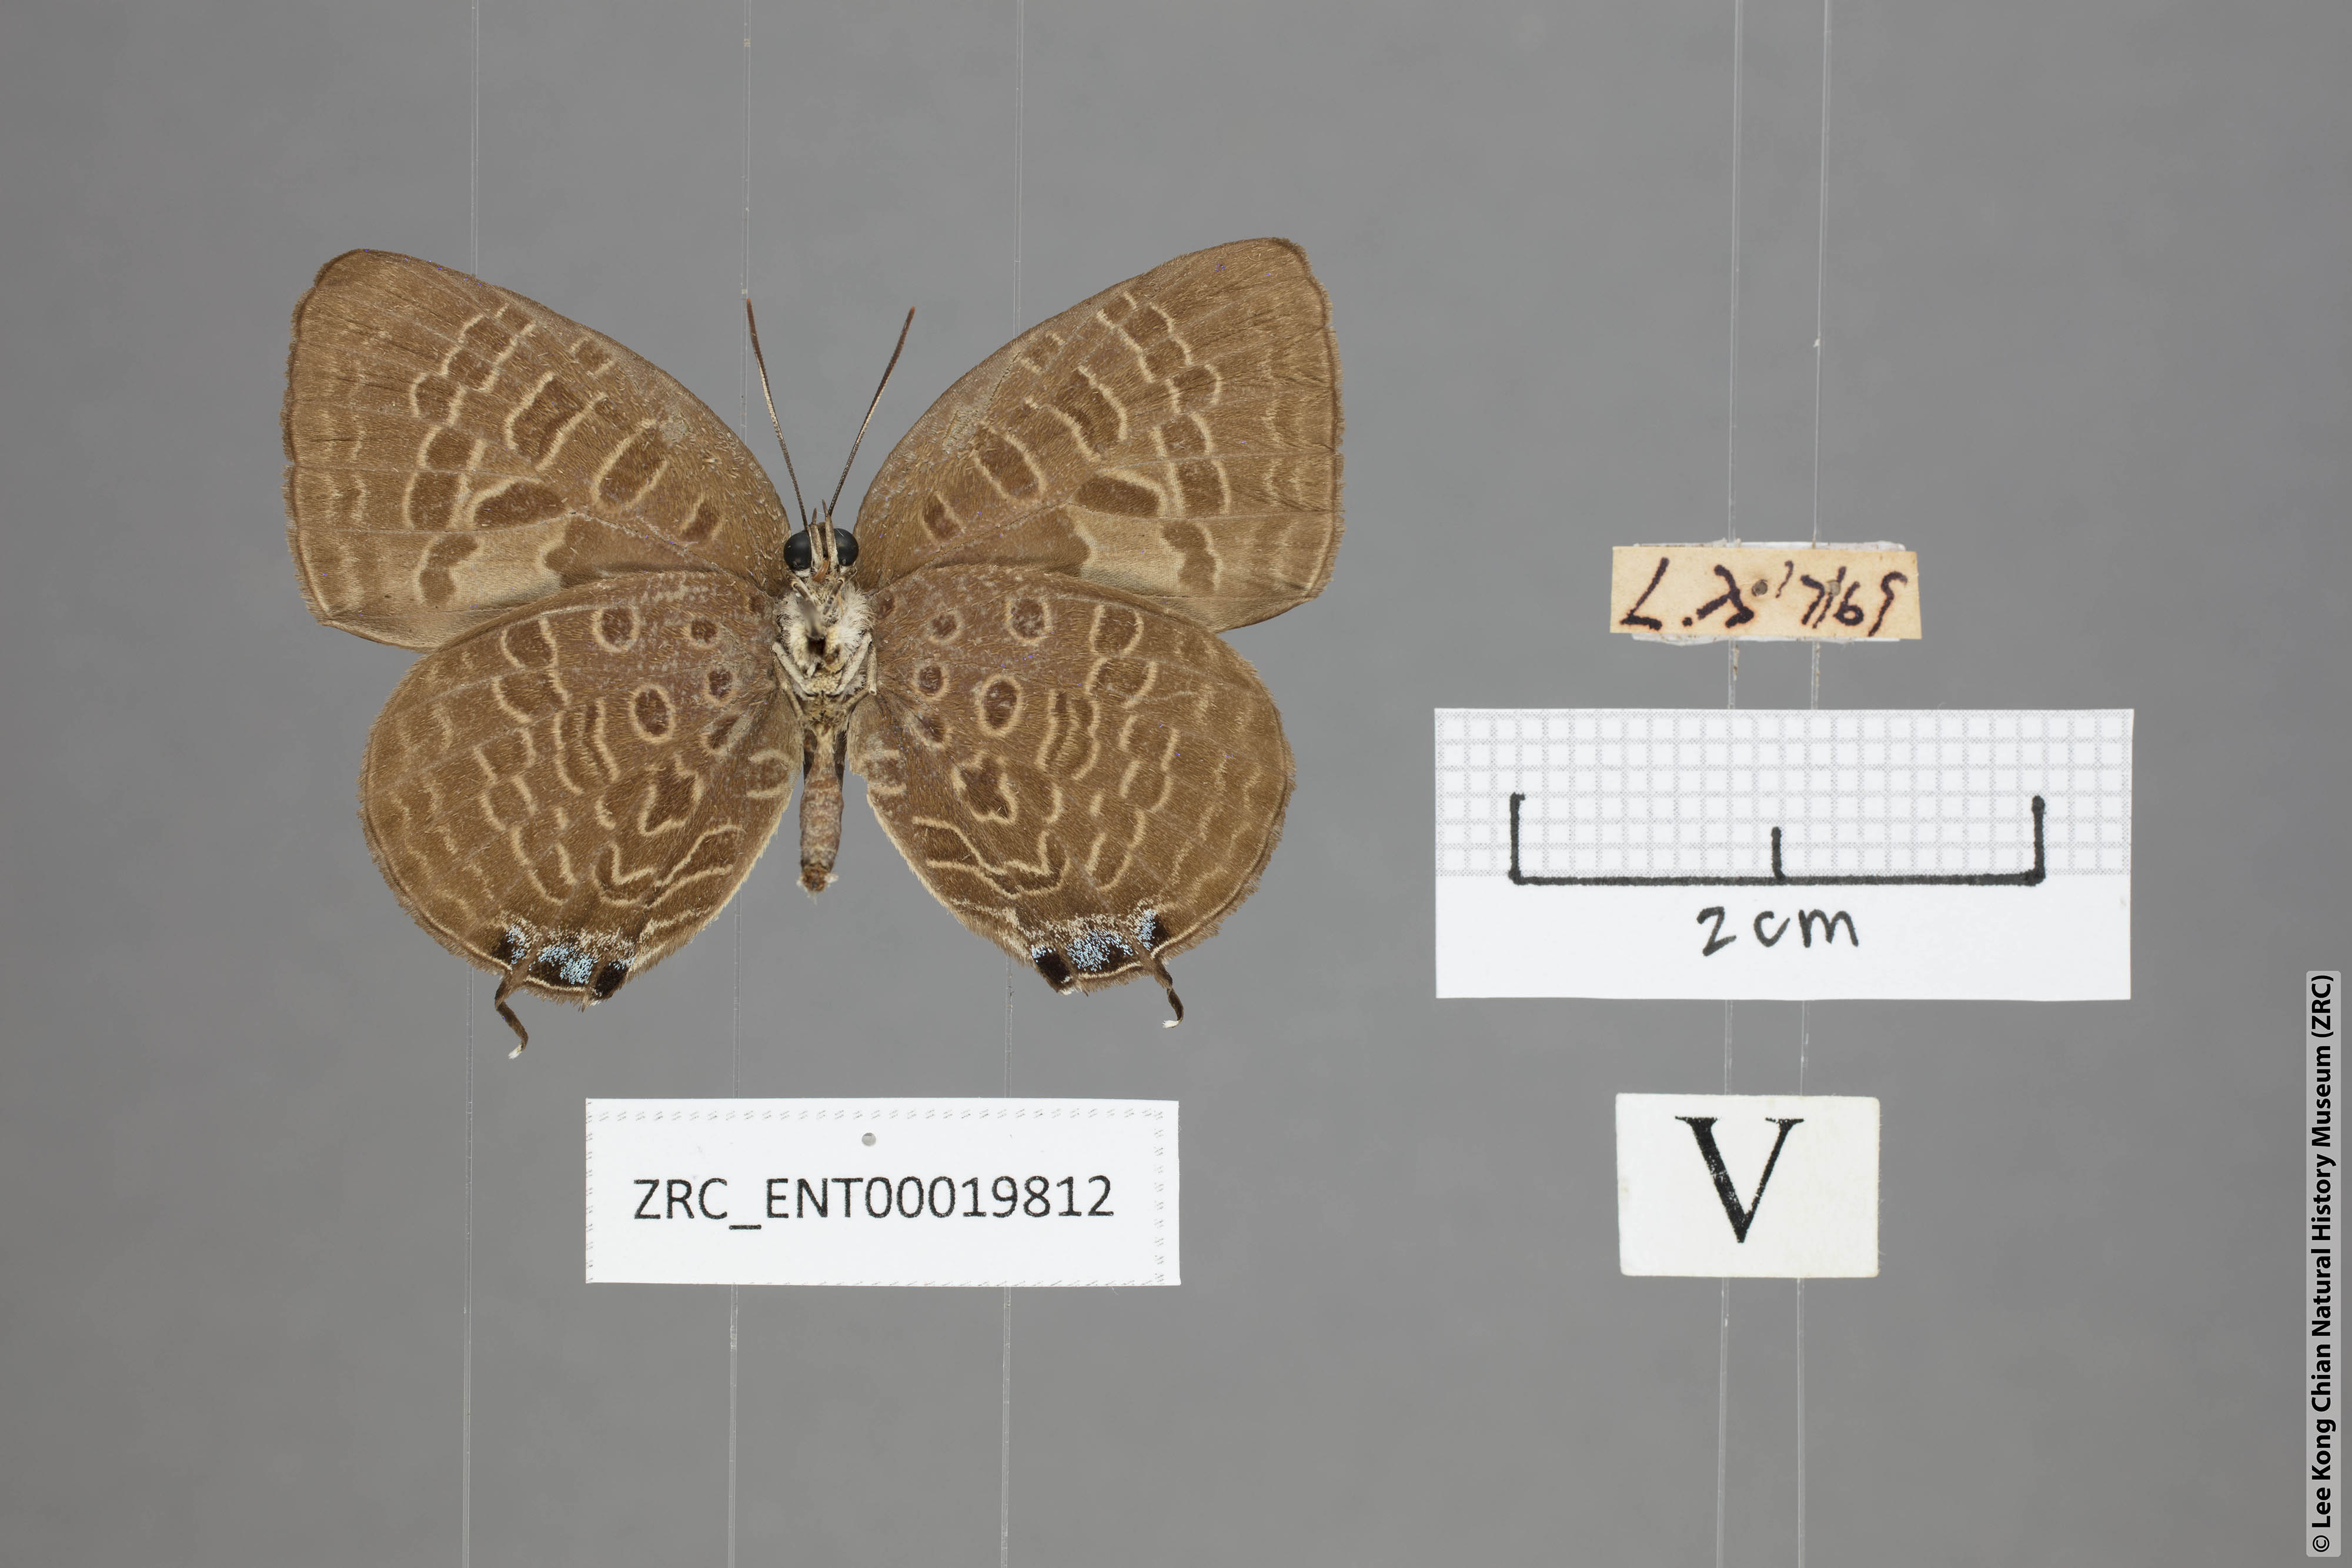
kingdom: Animalia
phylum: Arthropoda
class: Insecta
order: Lepidoptera
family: Lycaenidae
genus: Arhopala
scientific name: Arhopala pseudomuta
